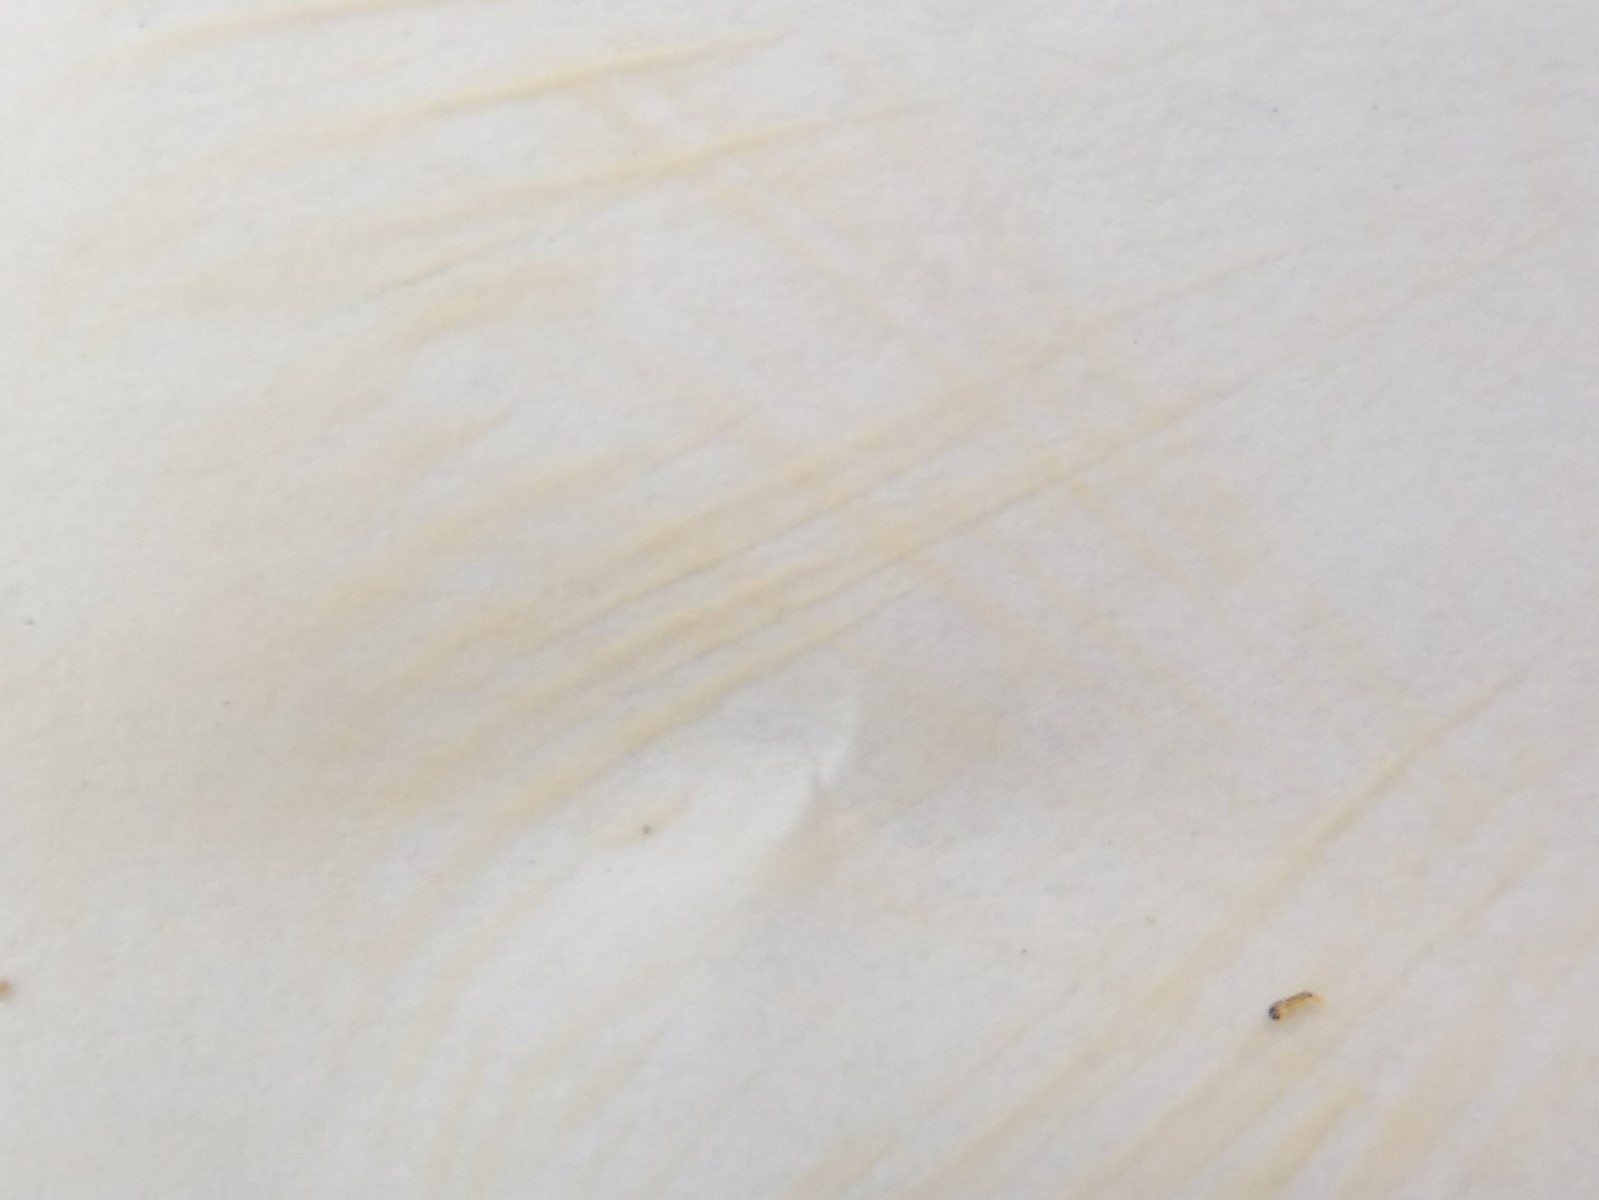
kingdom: Fungi
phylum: Basidiomycota
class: Agaricomycetes
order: Russulales
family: Russulaceae
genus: Russula
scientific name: Russula rhodopus
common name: lak-skørhat
